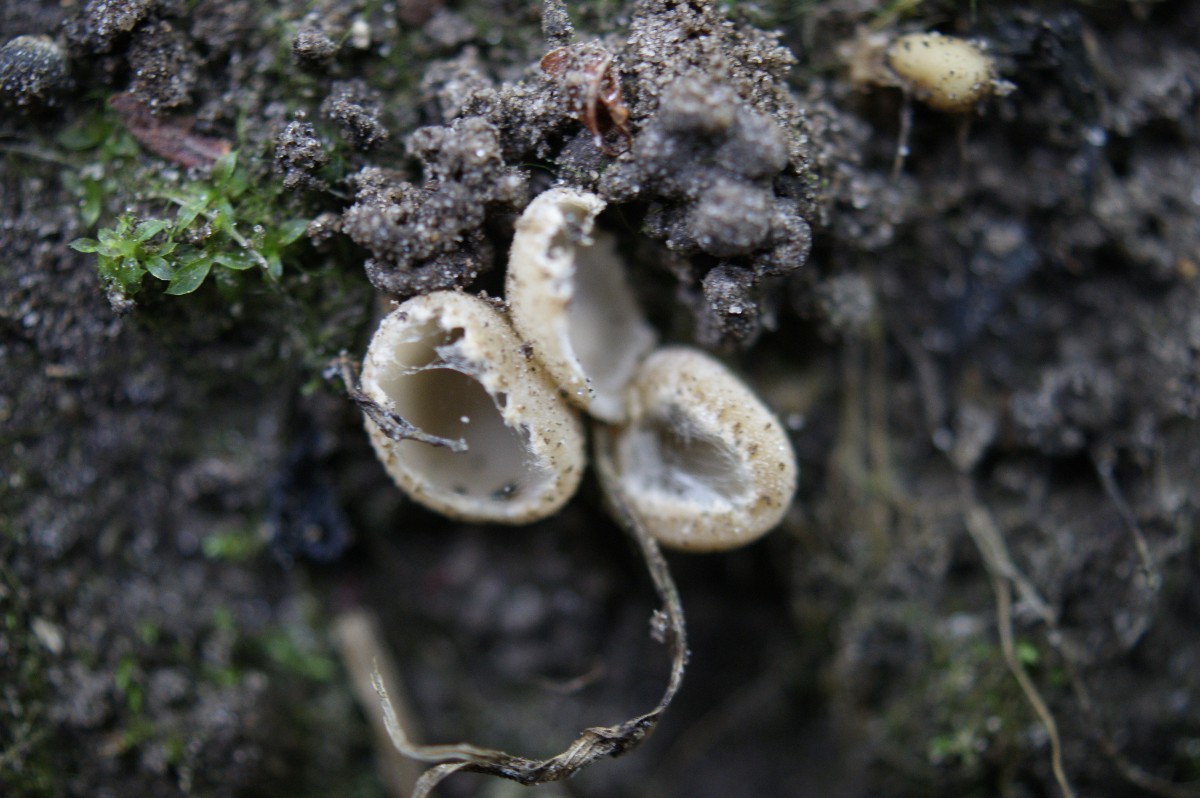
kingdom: Fungi
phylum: Ascomycota
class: Pezizomycetes
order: Pezizales
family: Pyronemataceae
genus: Tarzetta
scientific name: Tarzetta cupularis
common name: gulbrun pokalbæger
